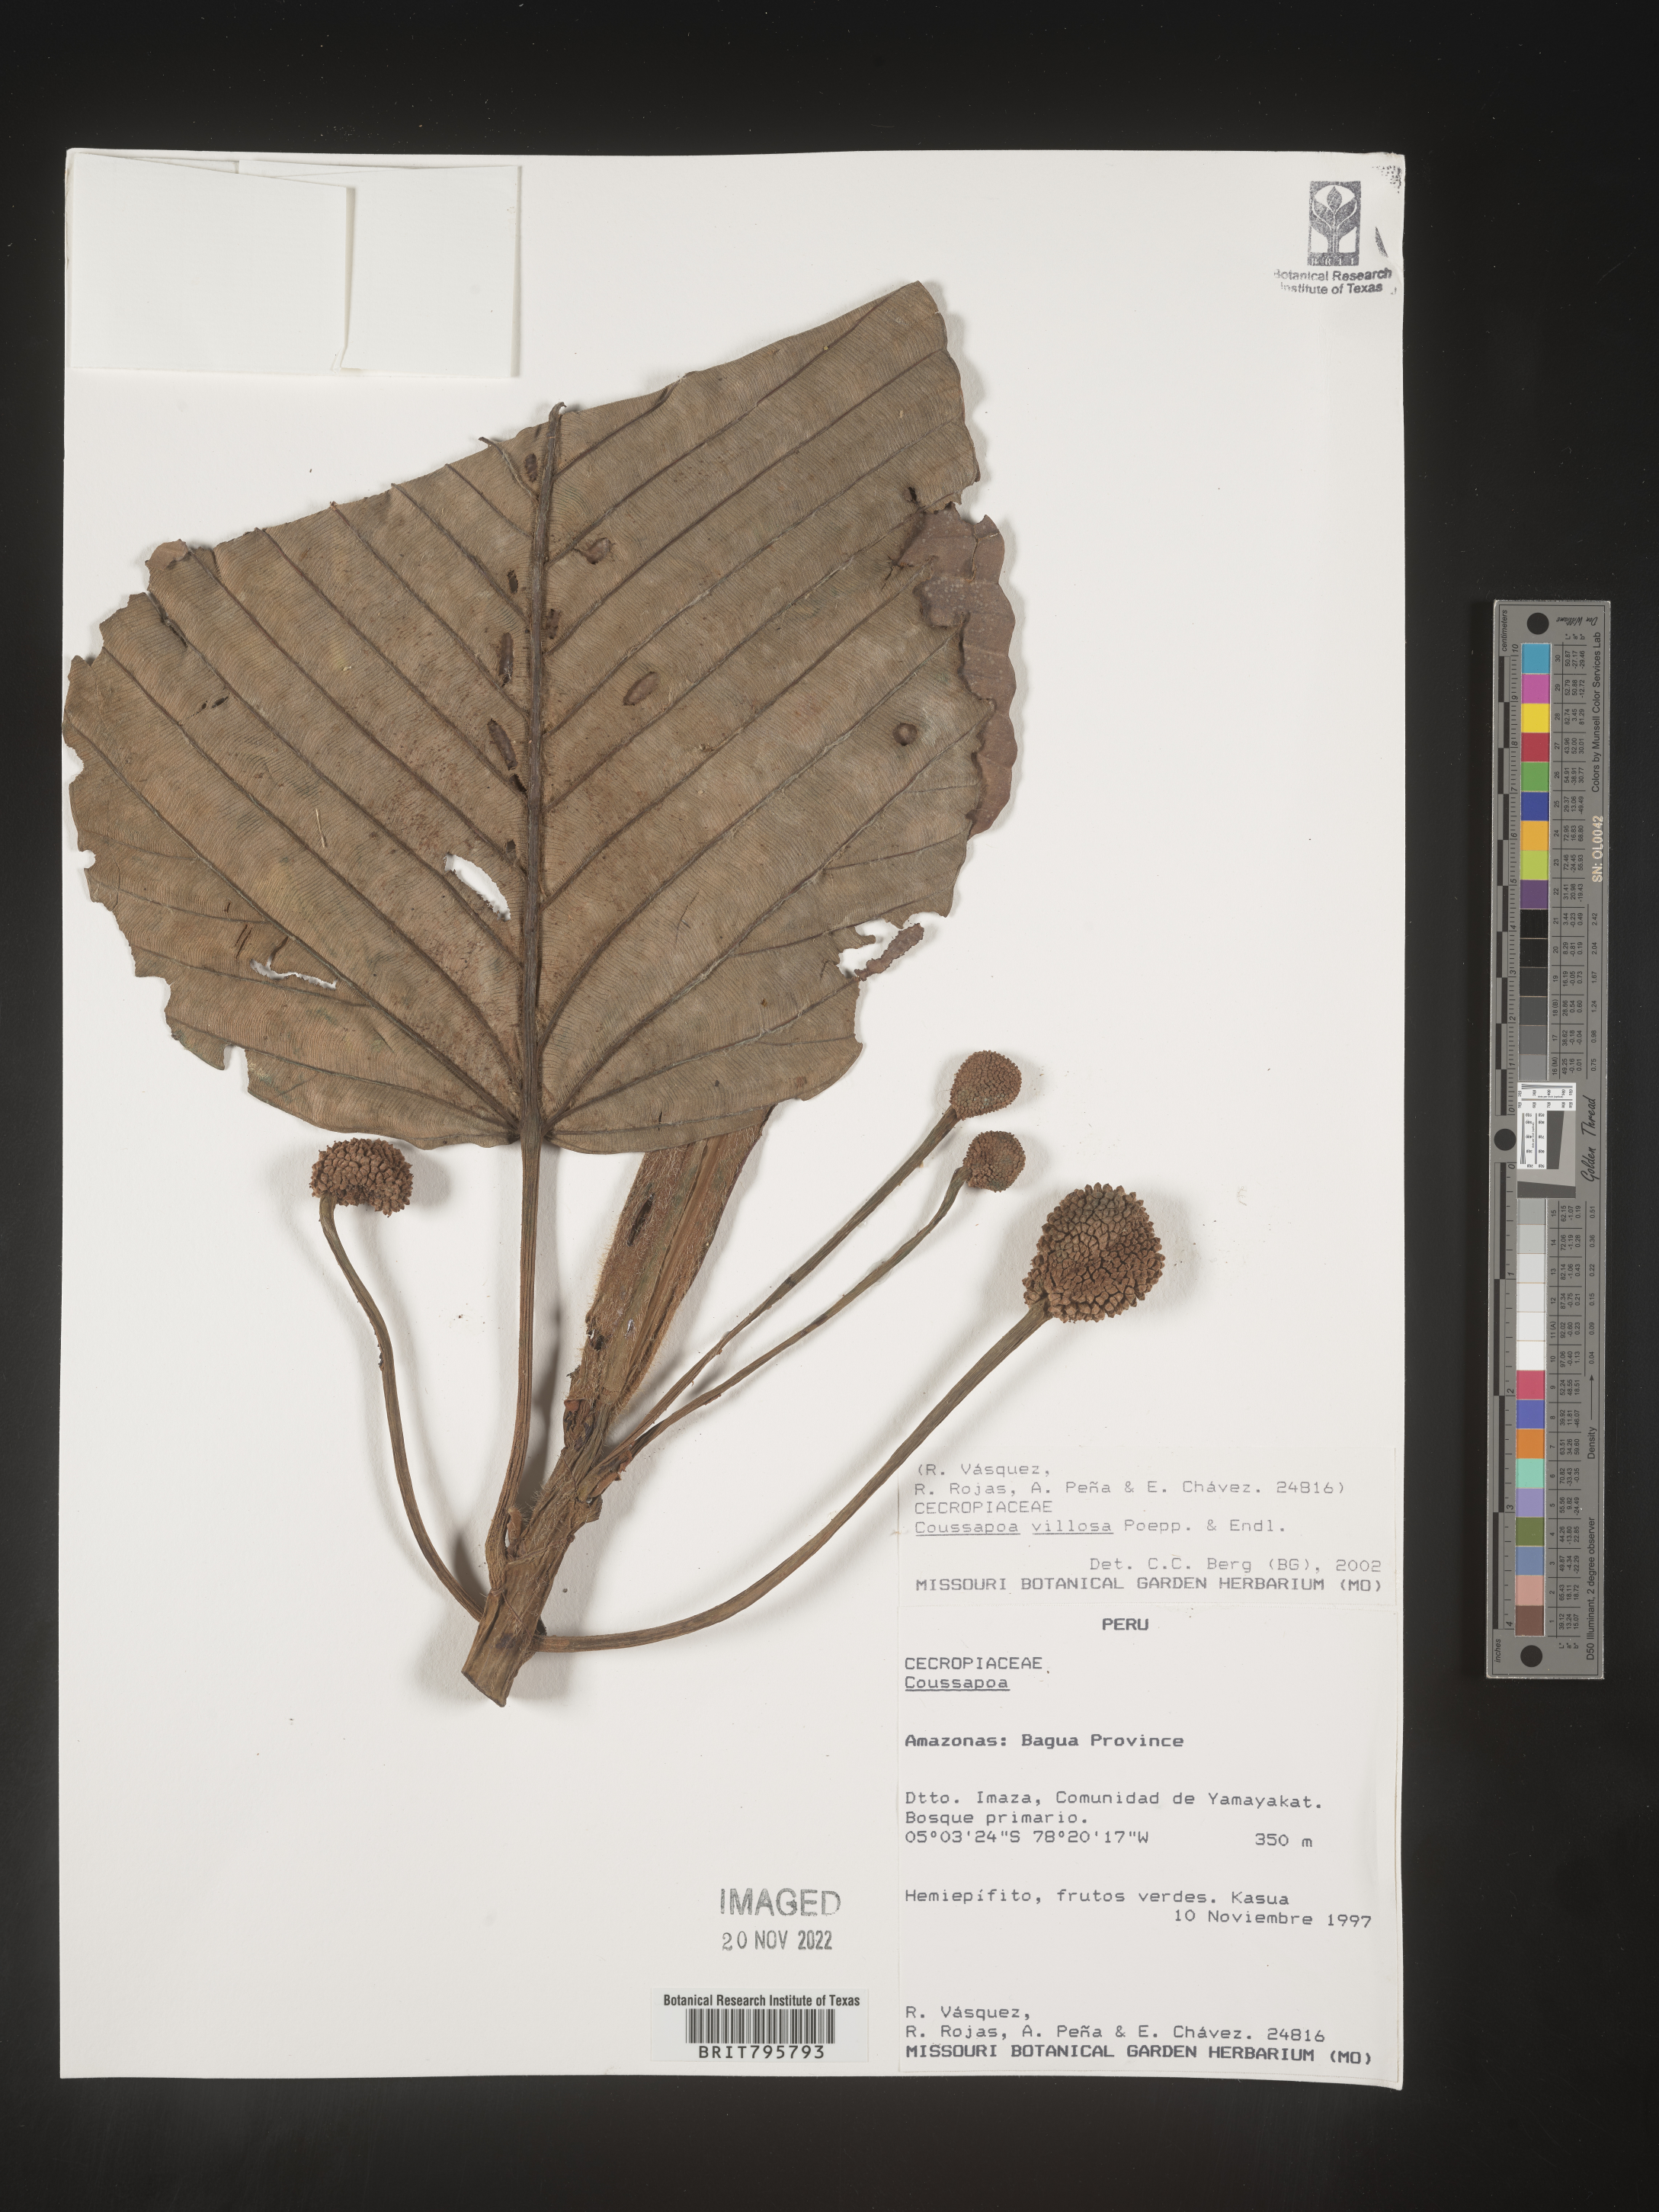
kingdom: Plantae
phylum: Tracheophyta
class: Magnoliopsida
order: Rosales
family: Urticaceae
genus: Coussapoa
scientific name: Coussapoa
